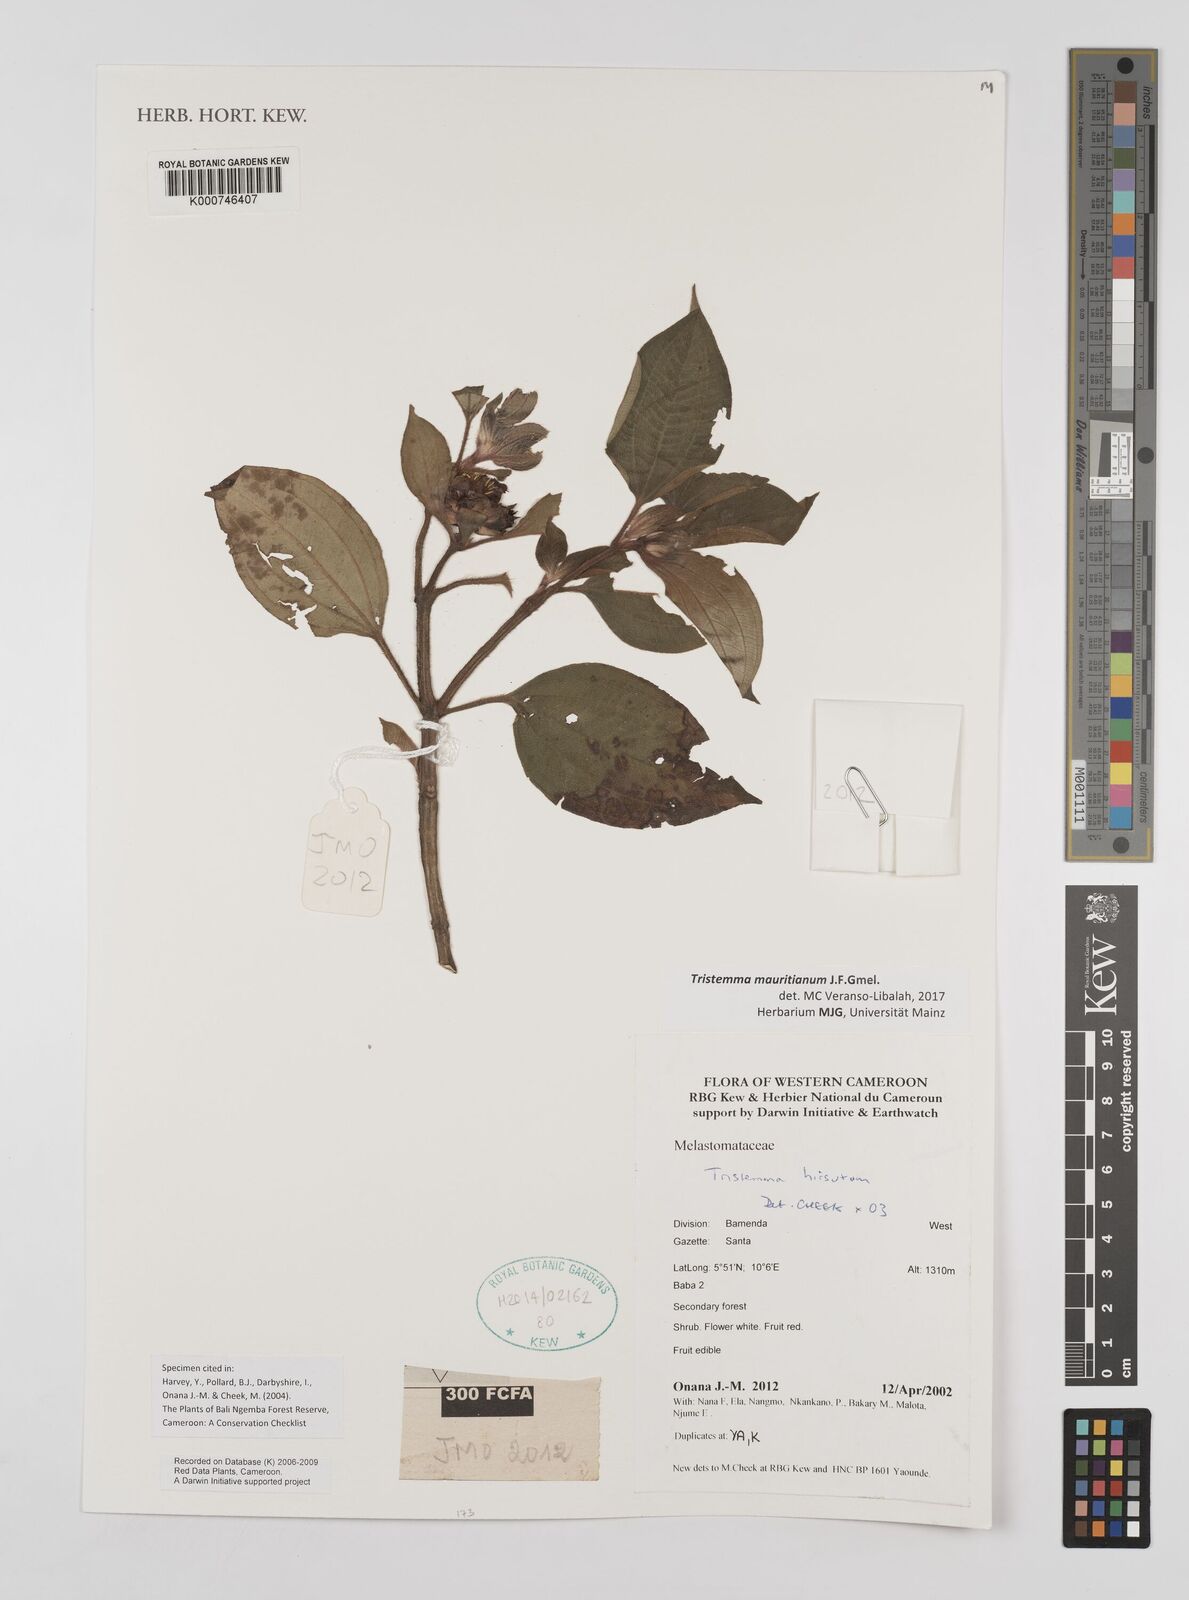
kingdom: Plantae
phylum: Tracheophyta
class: Magnoliopsida
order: Myrtales
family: Melastomataceae
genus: Tristemma
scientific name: Tristemma hirtum
